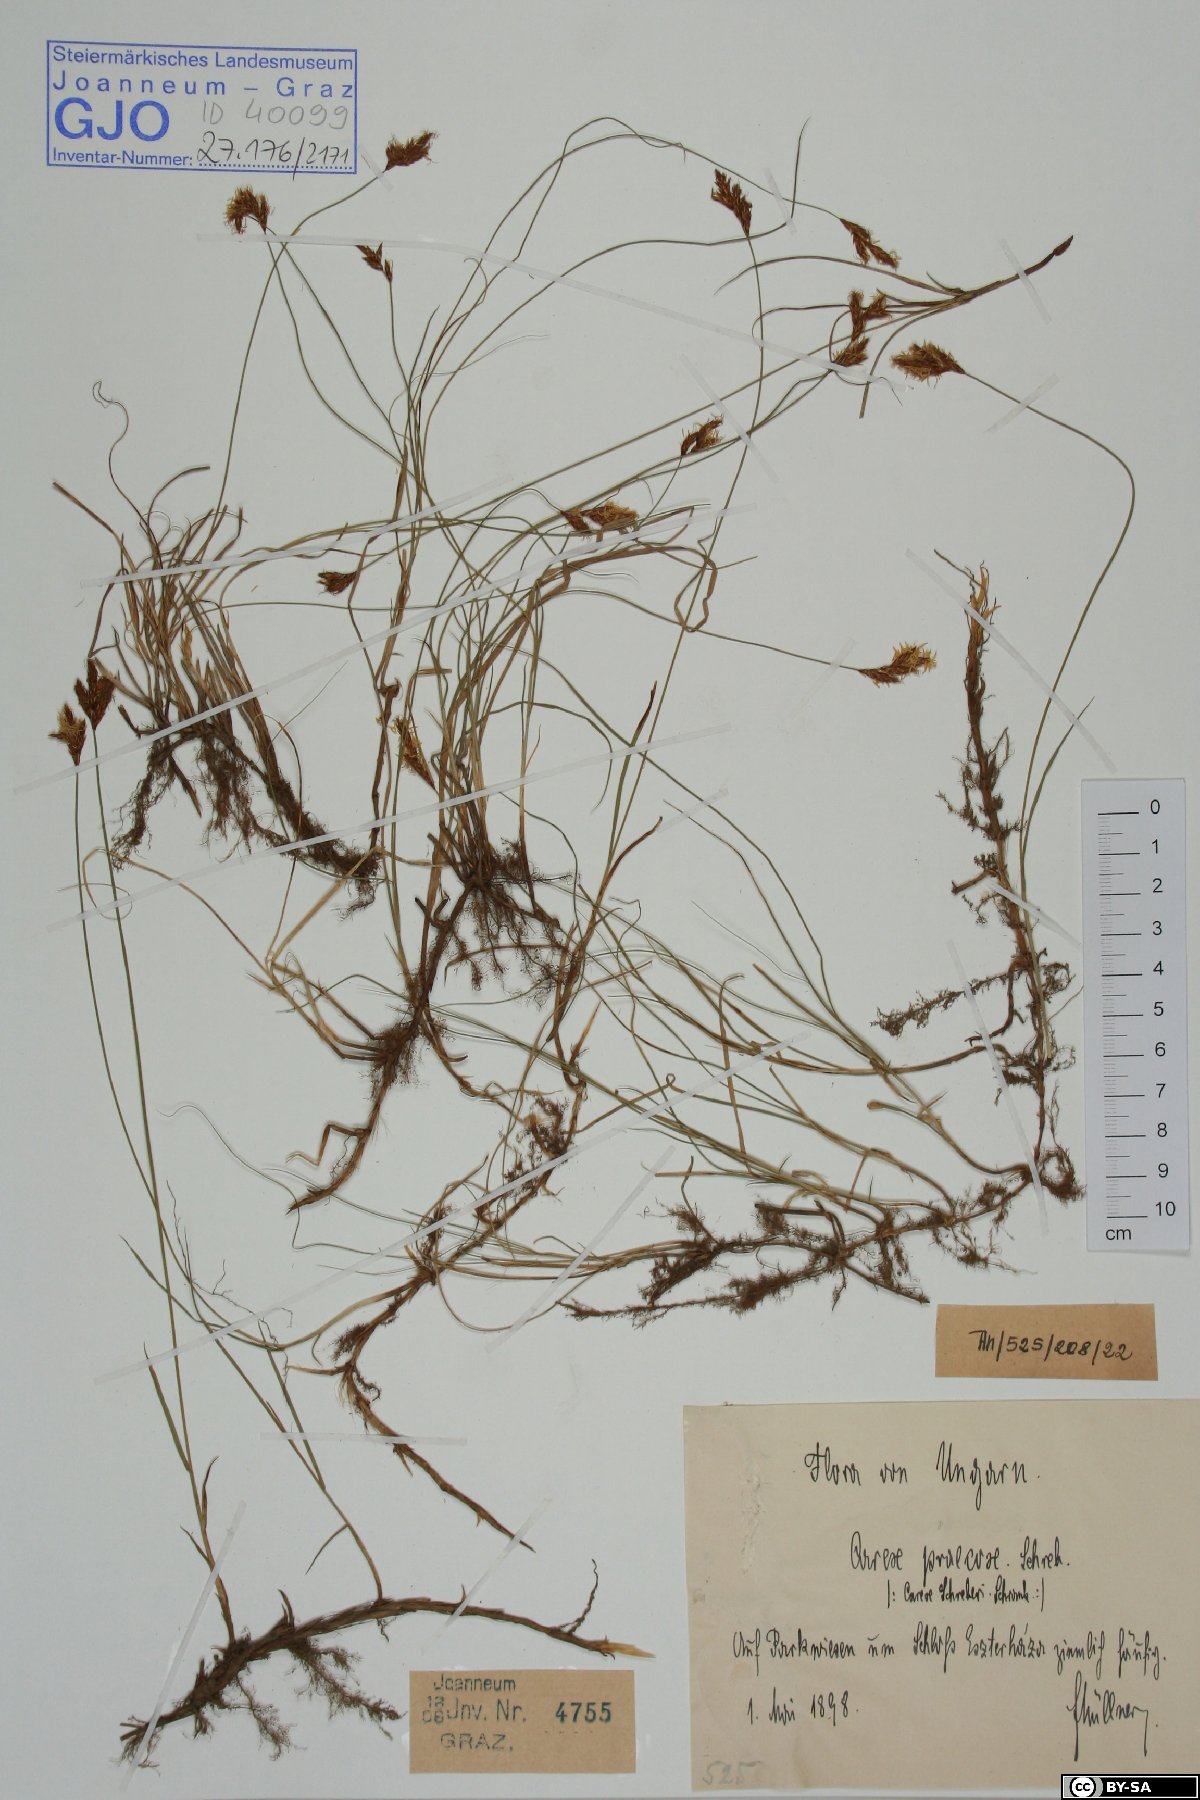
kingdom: Plantae
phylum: Tracheophyta
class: Liliopsida
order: Poales
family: Cyperaceae
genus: Carex
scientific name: Carex praecox
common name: Early sedge
